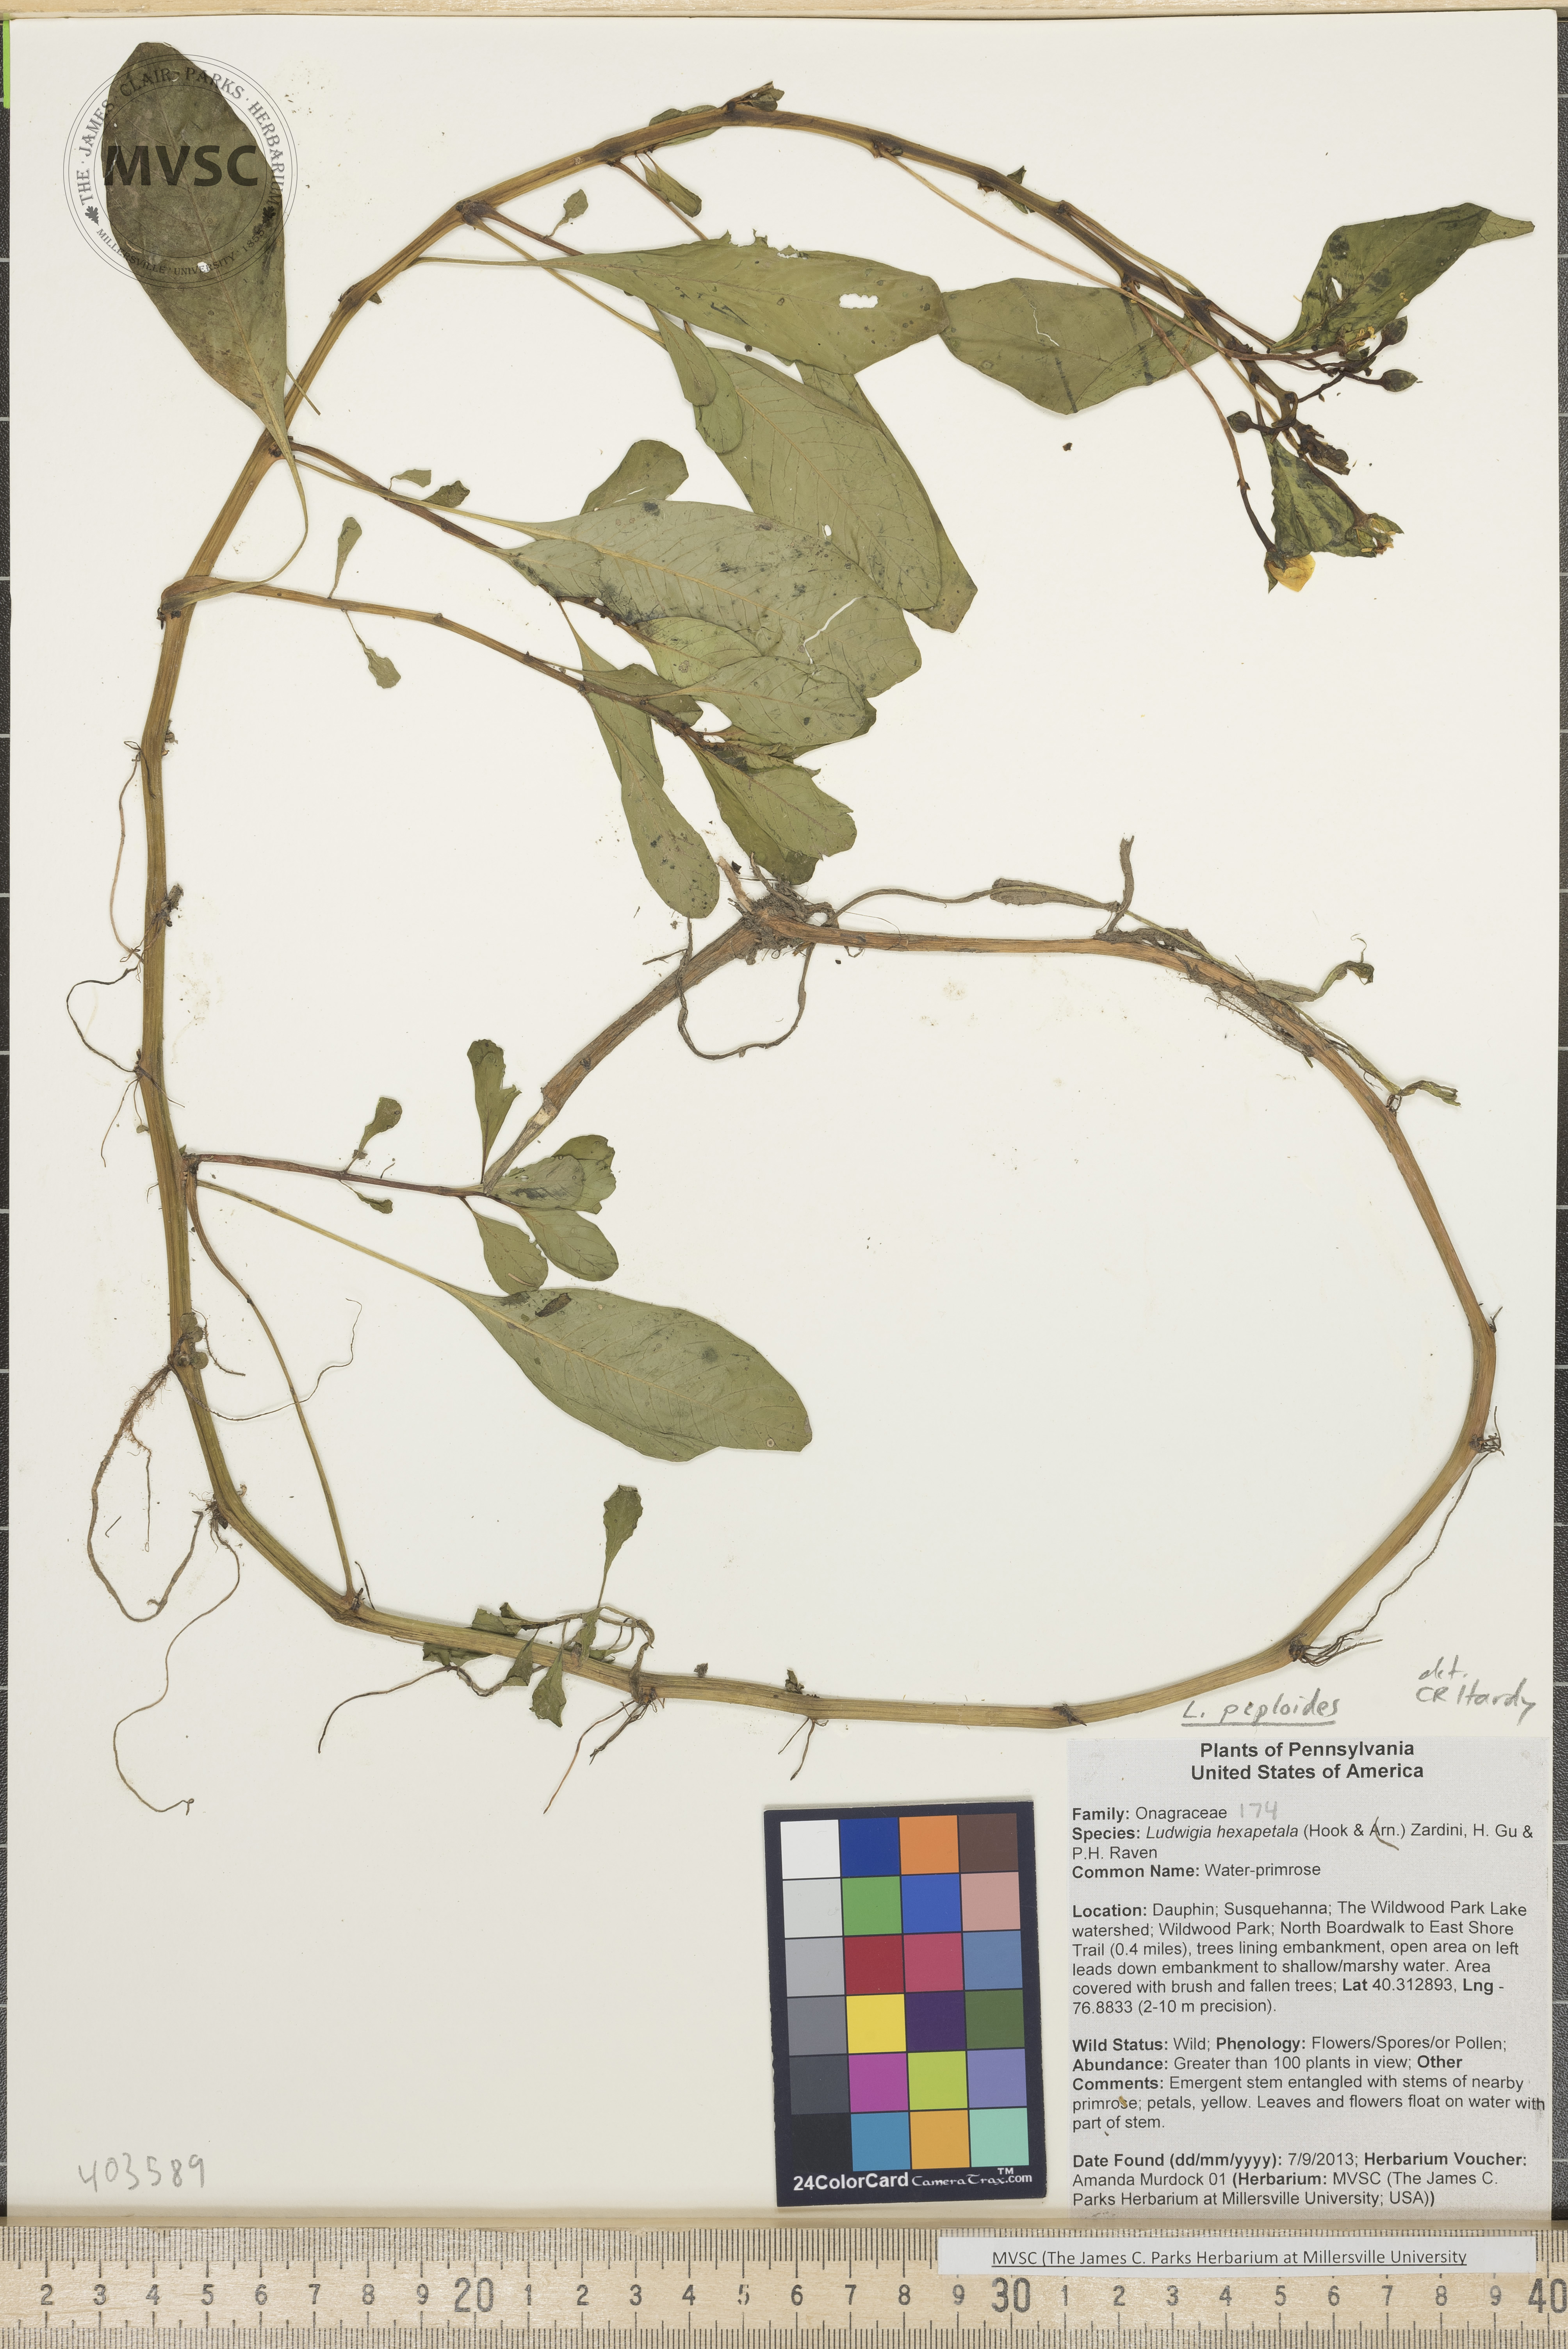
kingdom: Plantae
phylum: Tracheophyta
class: Magnoliopsida
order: Myrtales
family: Onagraceae
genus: Ludwigia
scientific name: Ludwigia peploides
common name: Water-primrose
